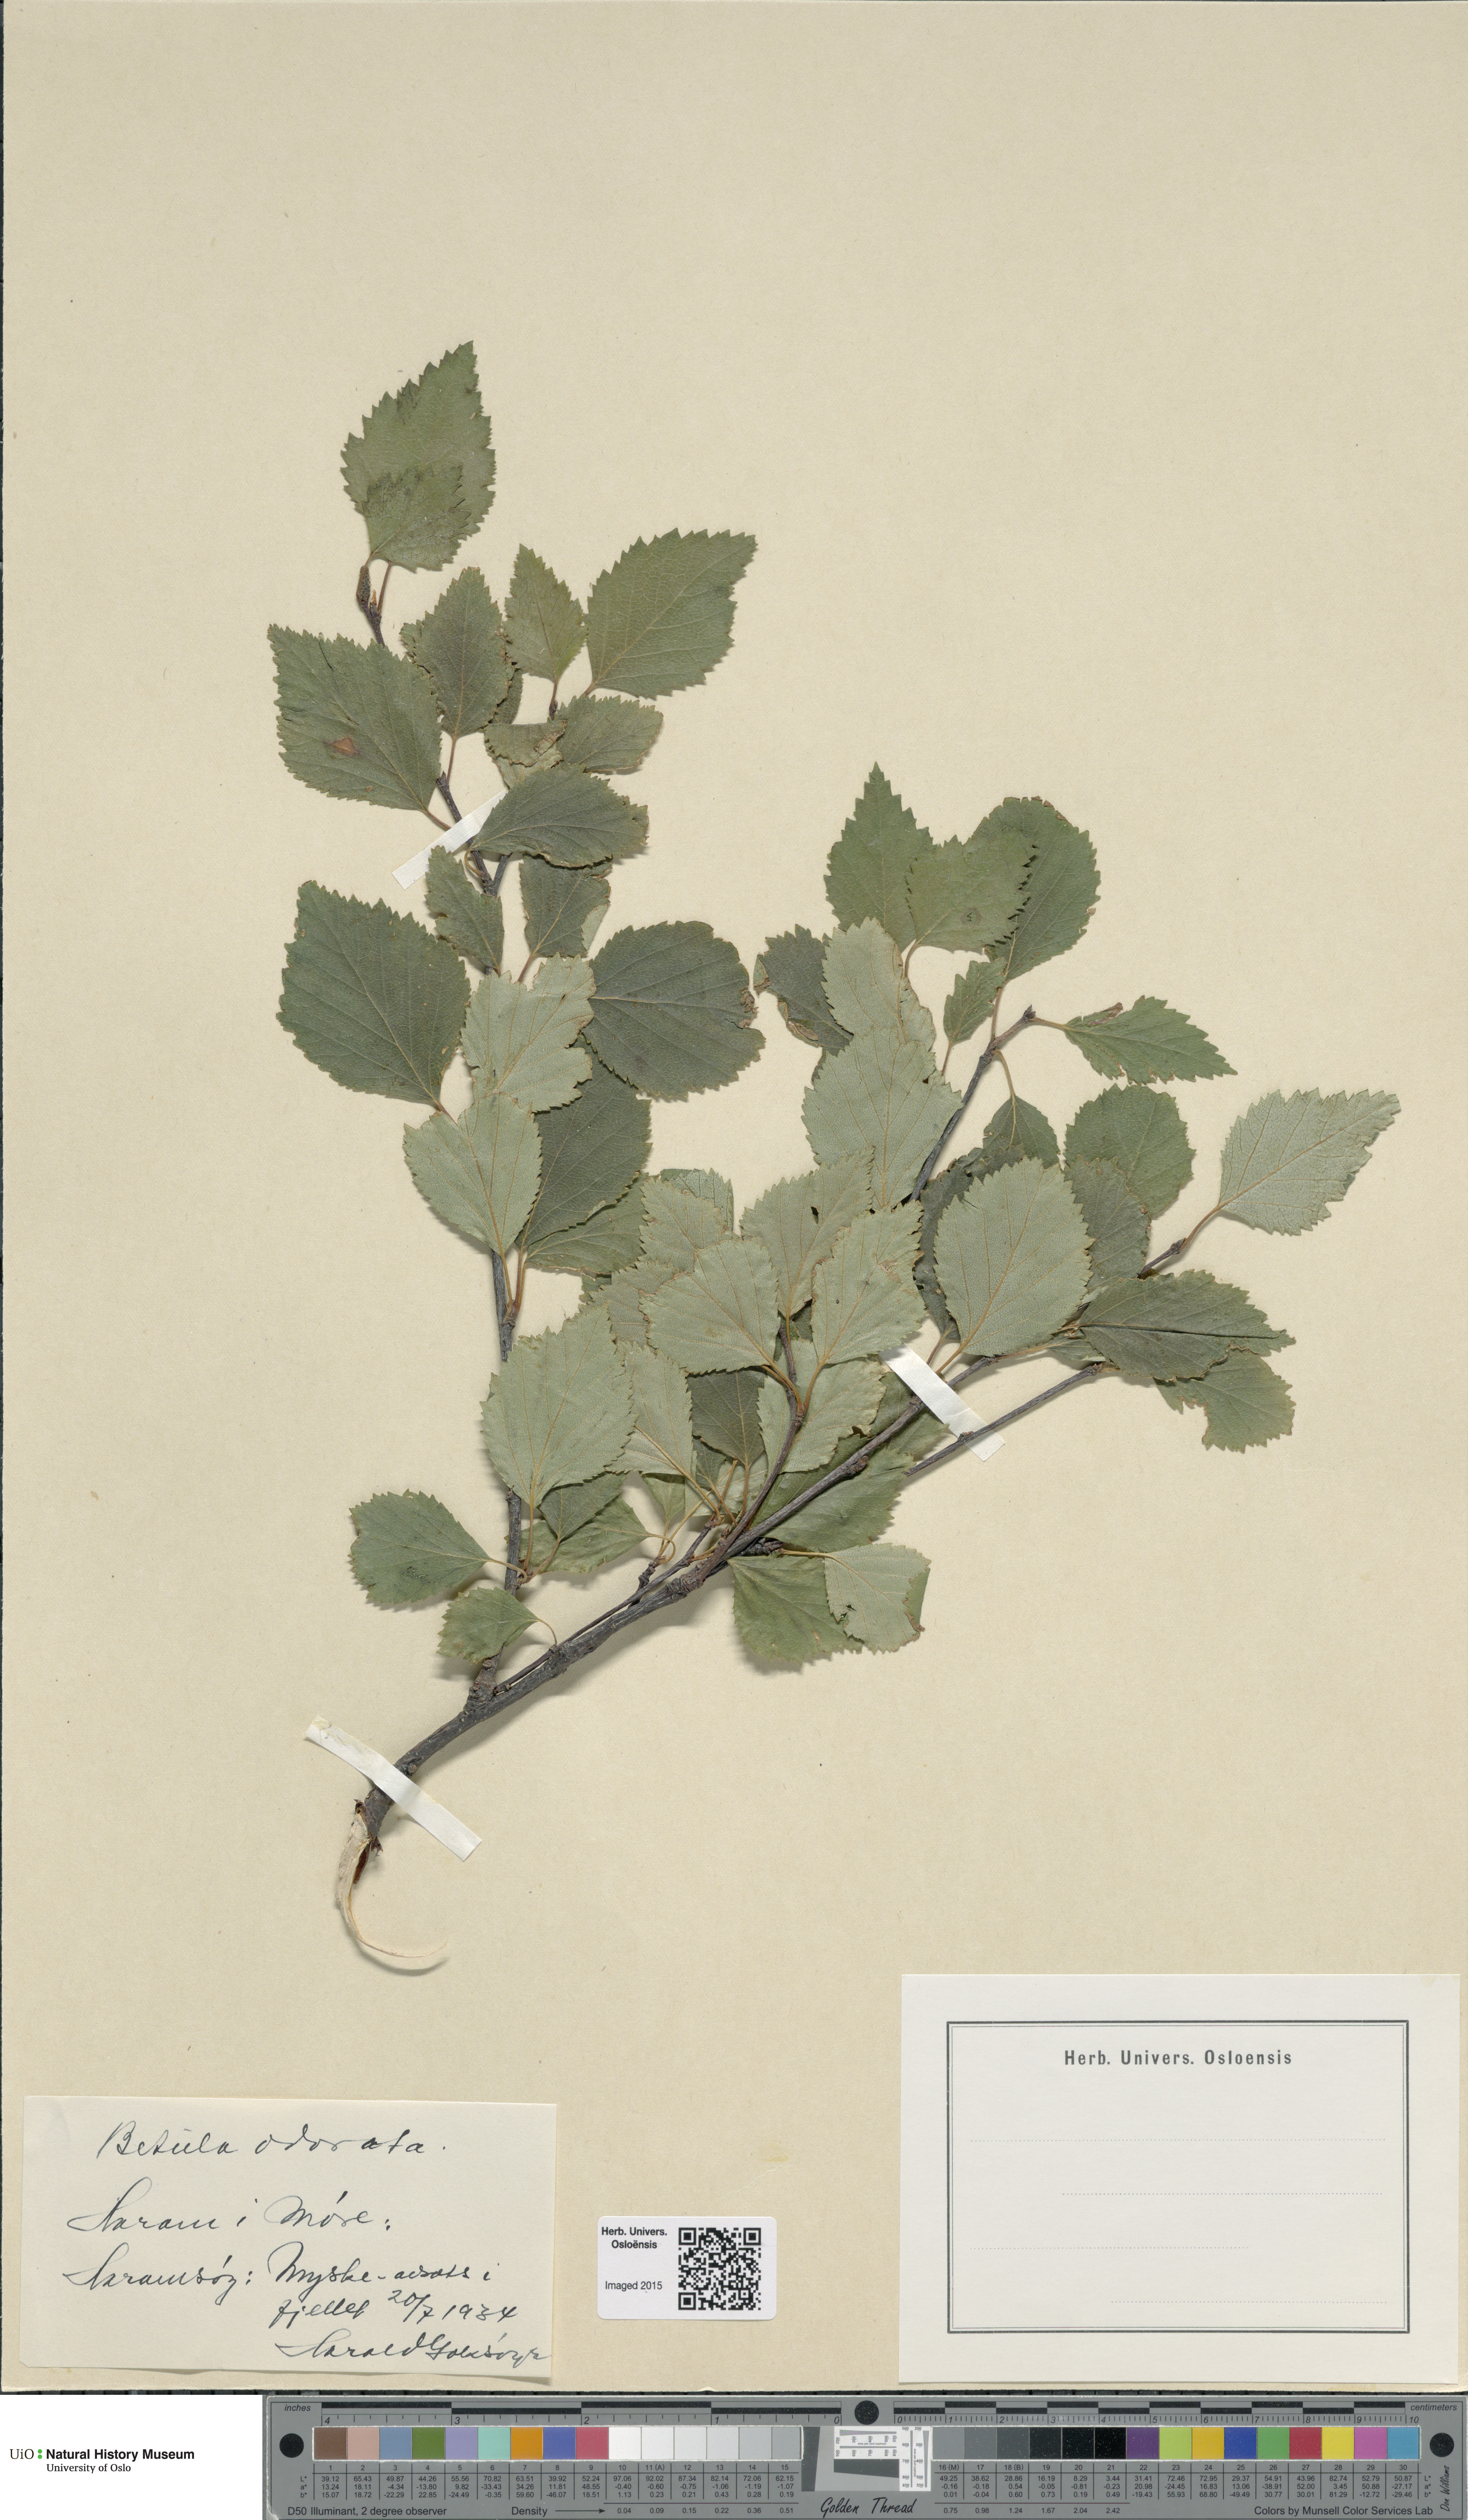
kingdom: Plantae
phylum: Tracheophyta
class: Magnoliopsida
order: Fagales
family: Betulaceae
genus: Betula
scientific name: Betula pubescens
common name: Downy birch
